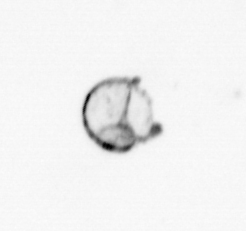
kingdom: Chromista
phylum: Ochrophyta
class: Bacillariophyceae
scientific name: Bacillariophyceae
